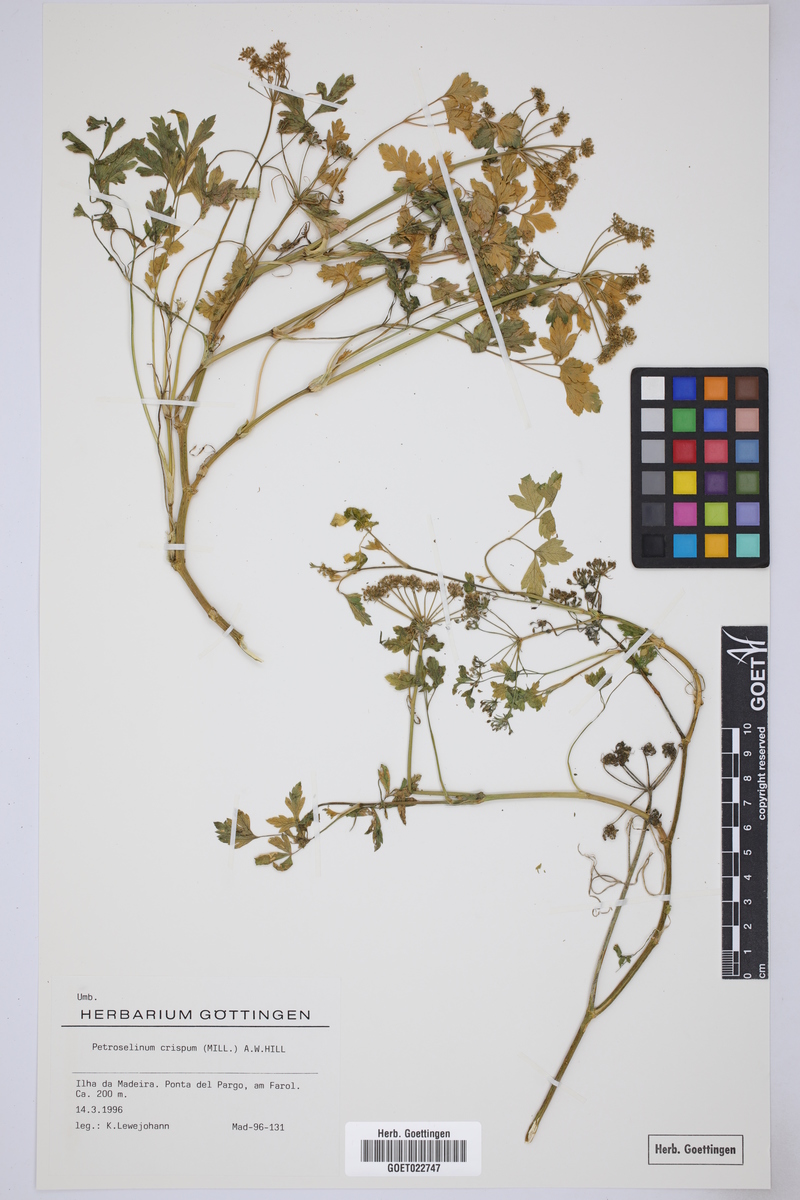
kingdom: Plantae
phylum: Tracheophyta
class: Magnoliopsida
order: Apiales
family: Apiaceae
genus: Petroselinum
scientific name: Petroselinum crispum
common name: Parsley
